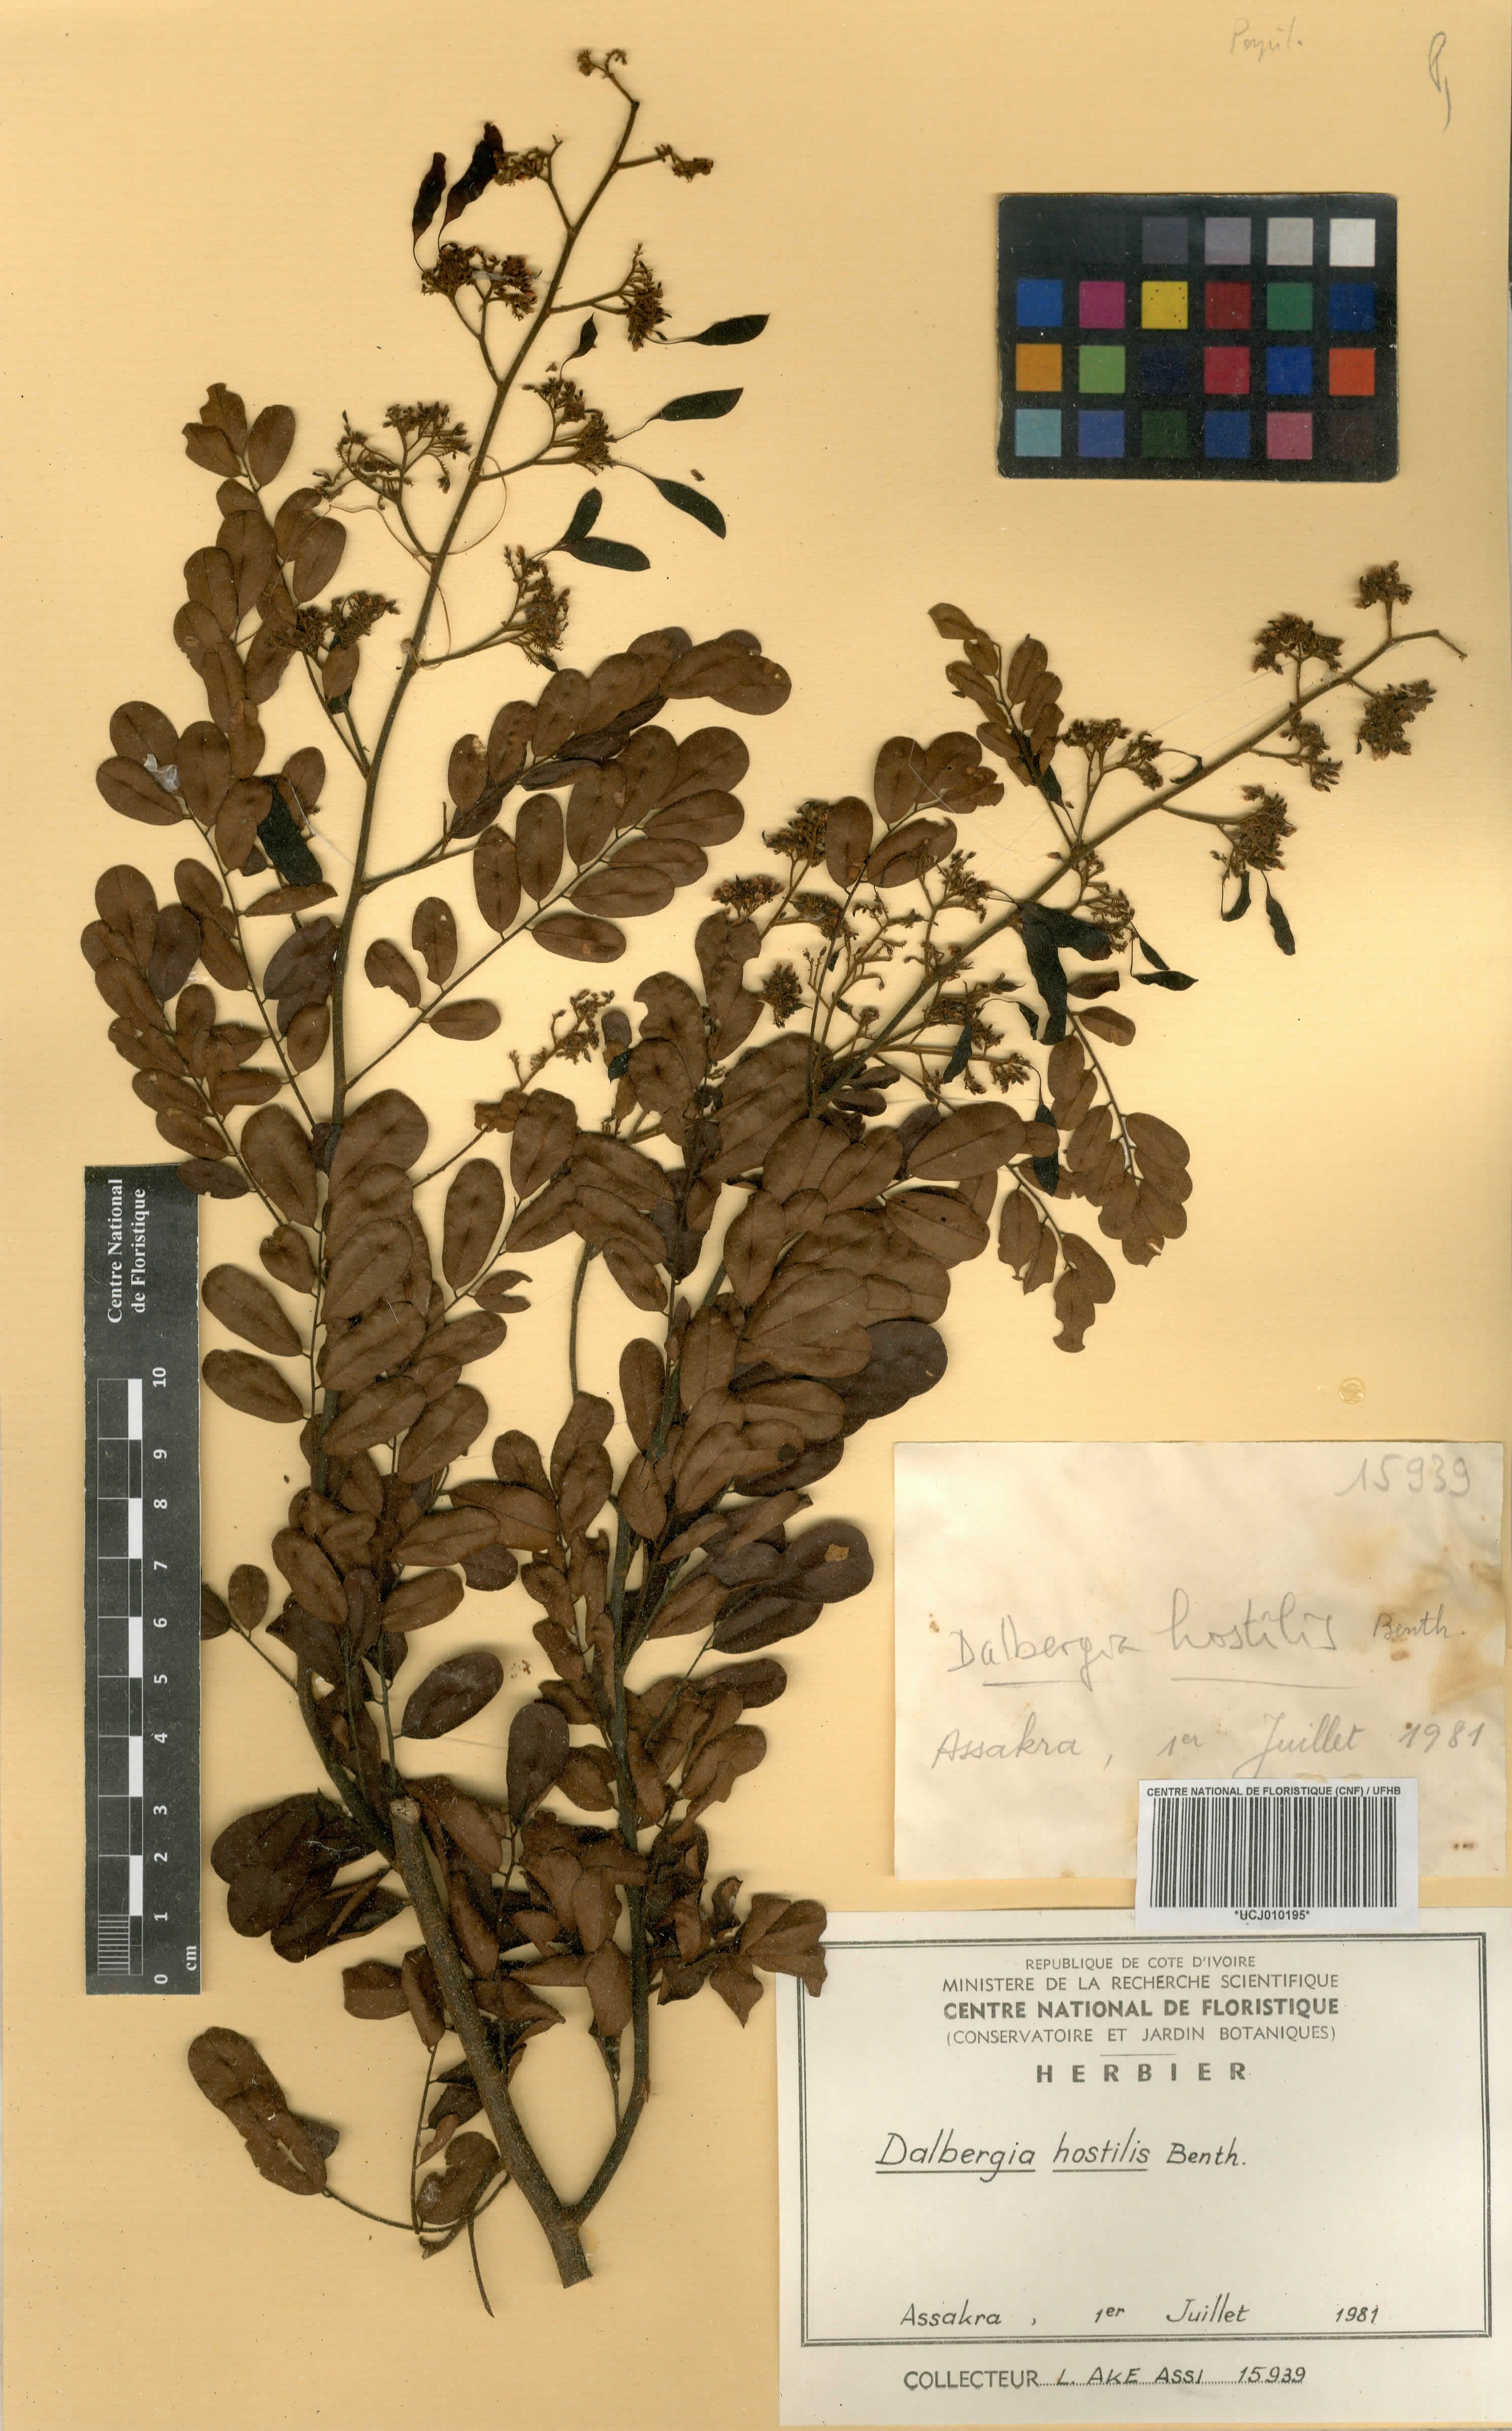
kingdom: Plantae
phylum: Tracheophyta
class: Magnoliopsida
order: Fabales
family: Fabaceae
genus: Dalbergia
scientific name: Dalbergia hostilis
